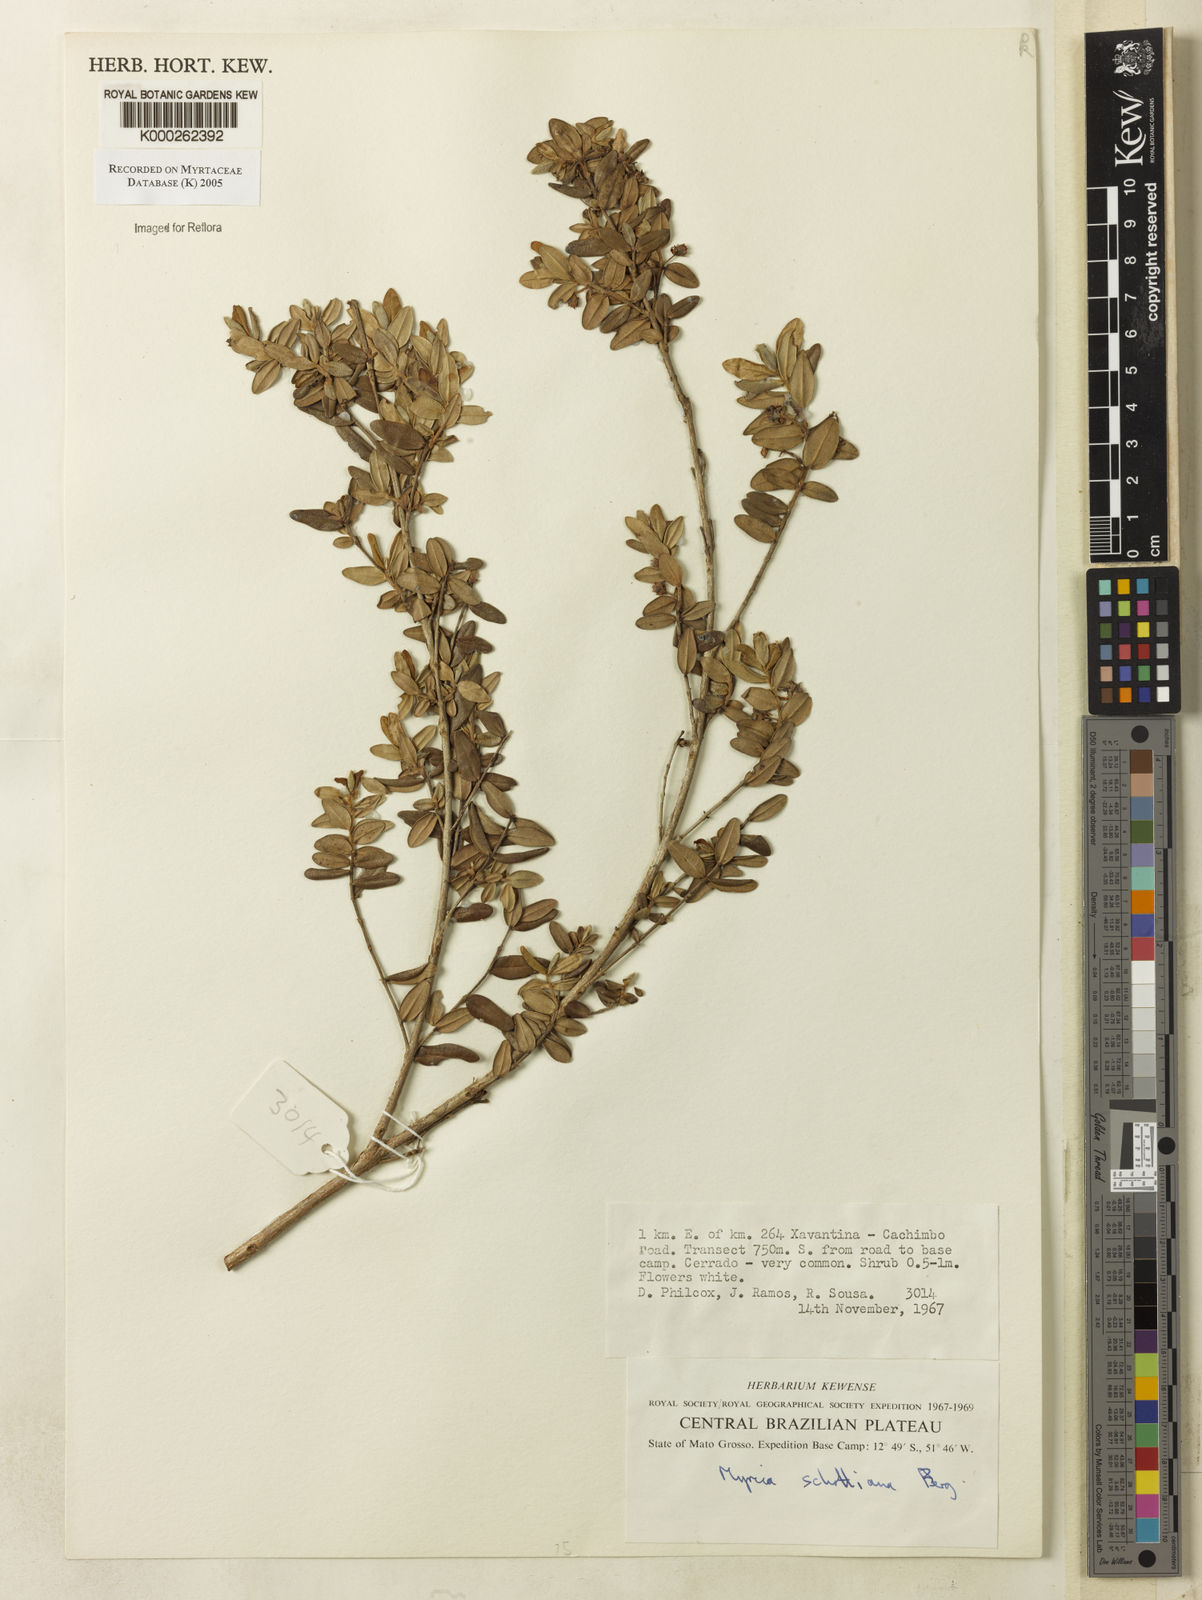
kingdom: Plantae
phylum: Tracheophyta
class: Magnoliopsida
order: Myrtales
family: Myrtaceae
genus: Myrcia
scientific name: Myrcia schottiana
